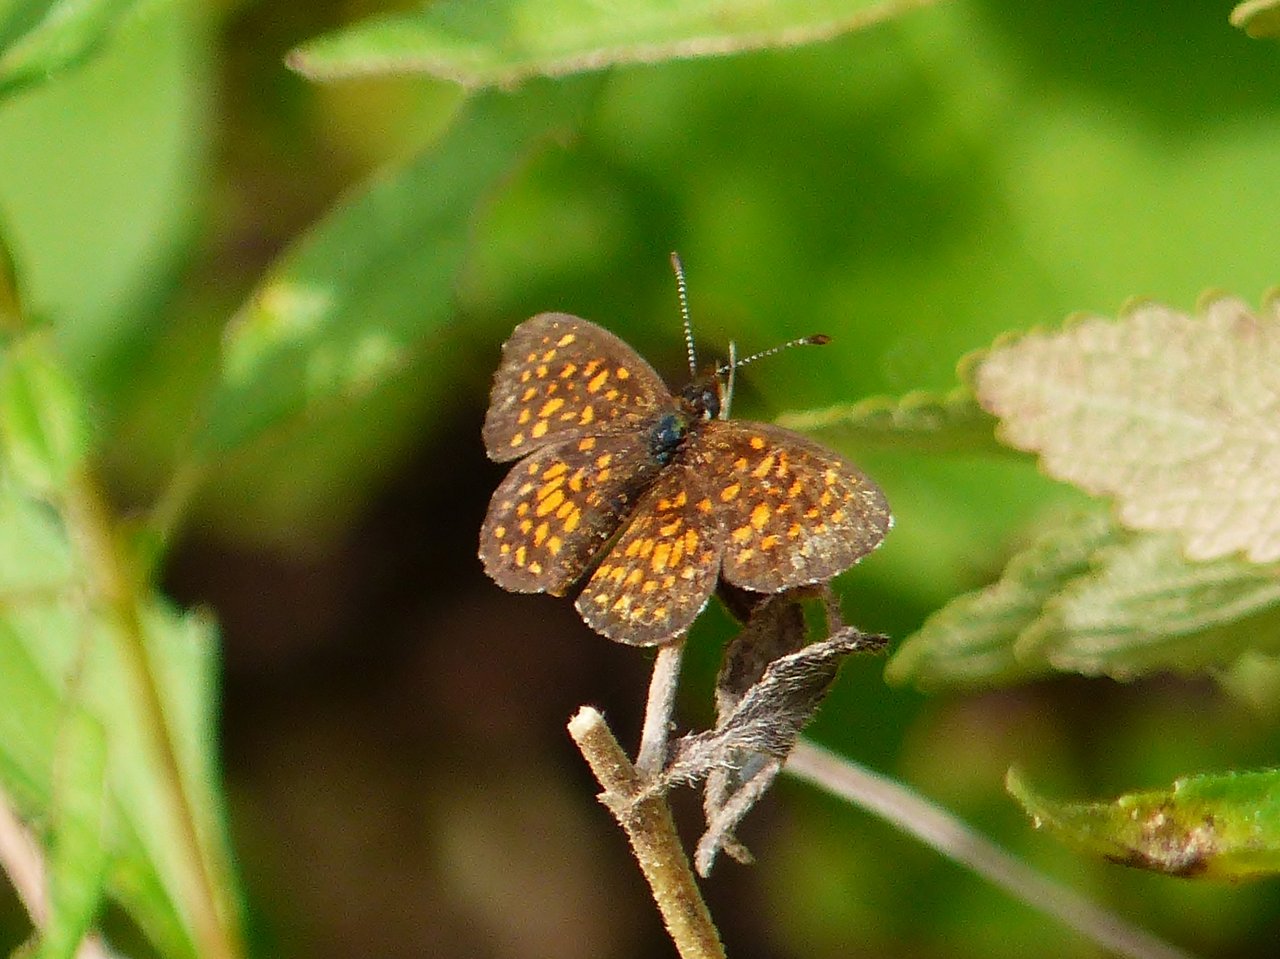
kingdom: Animalia
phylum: Arthropoda
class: Insecta
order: Lepidoptera
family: Nymphalidae
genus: Texola
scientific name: Texola elada
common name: Elada Checkerspot
